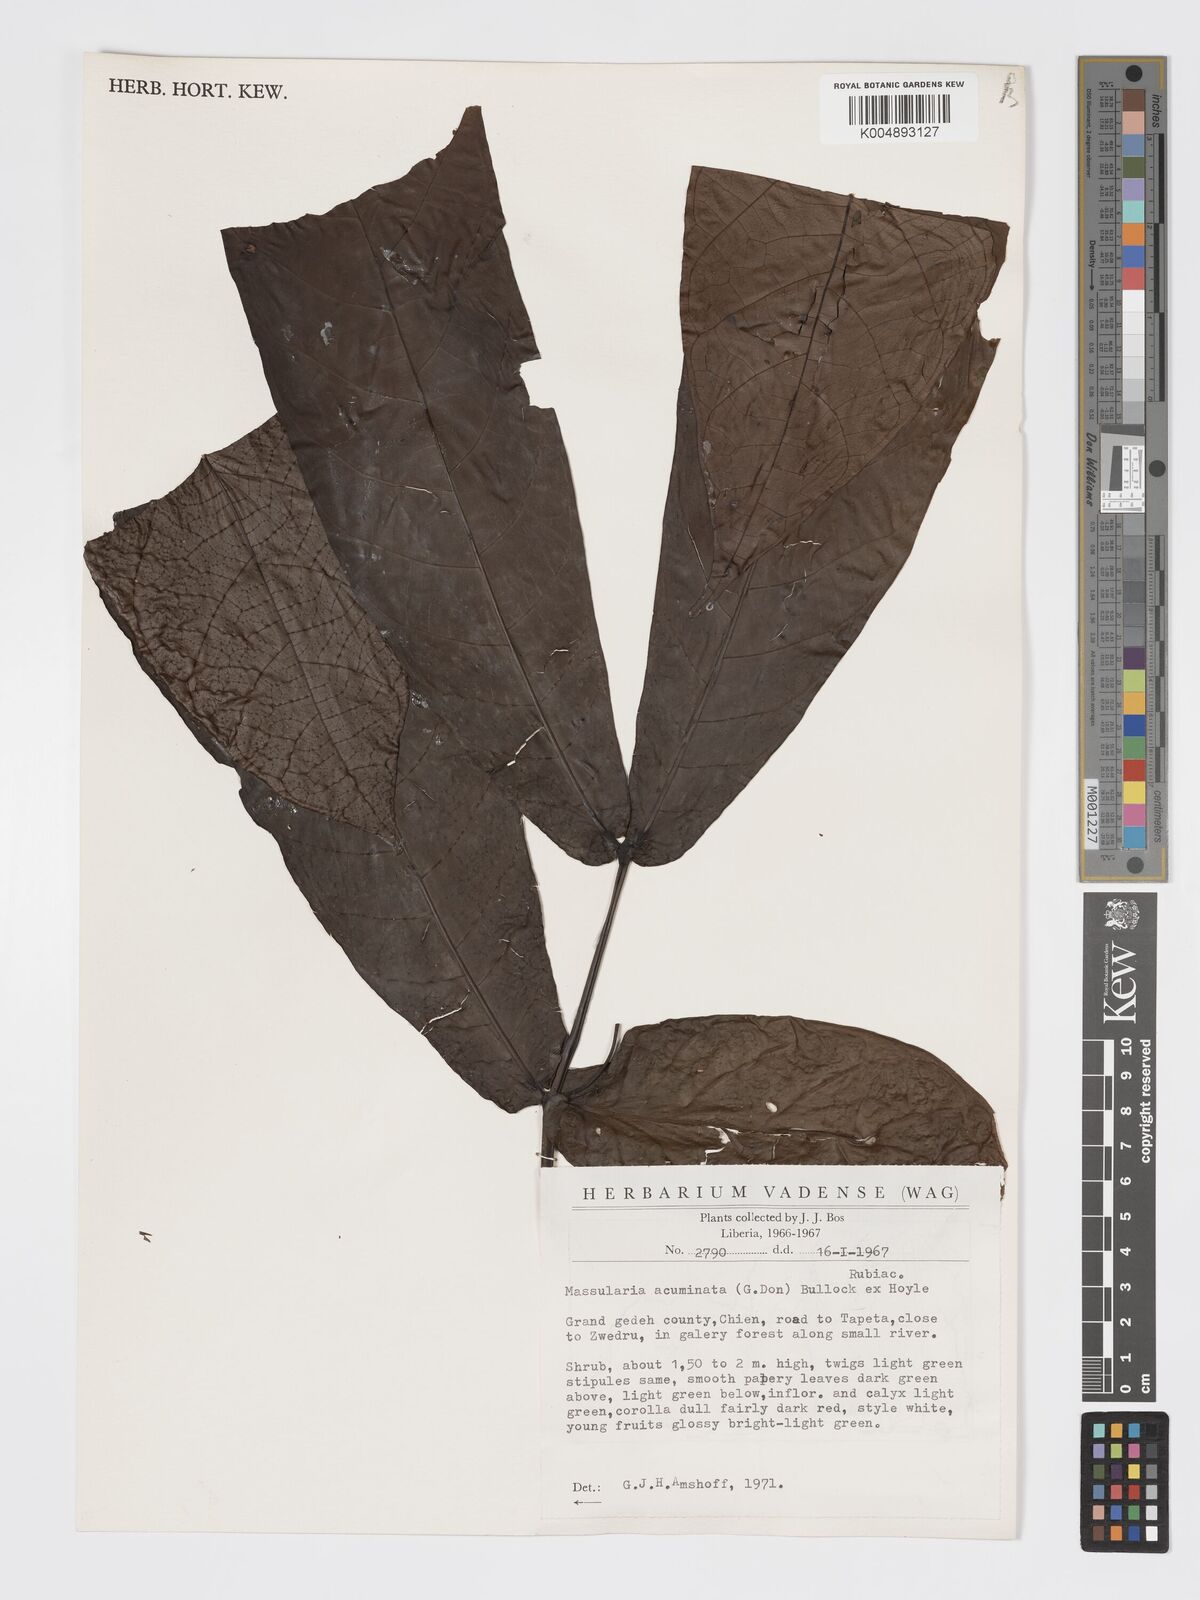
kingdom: Plantae
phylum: Tracheophyta
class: Magnoliopsida
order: Gentianales
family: Rubiaceae
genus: Massularia
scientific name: Massularia acuminata
